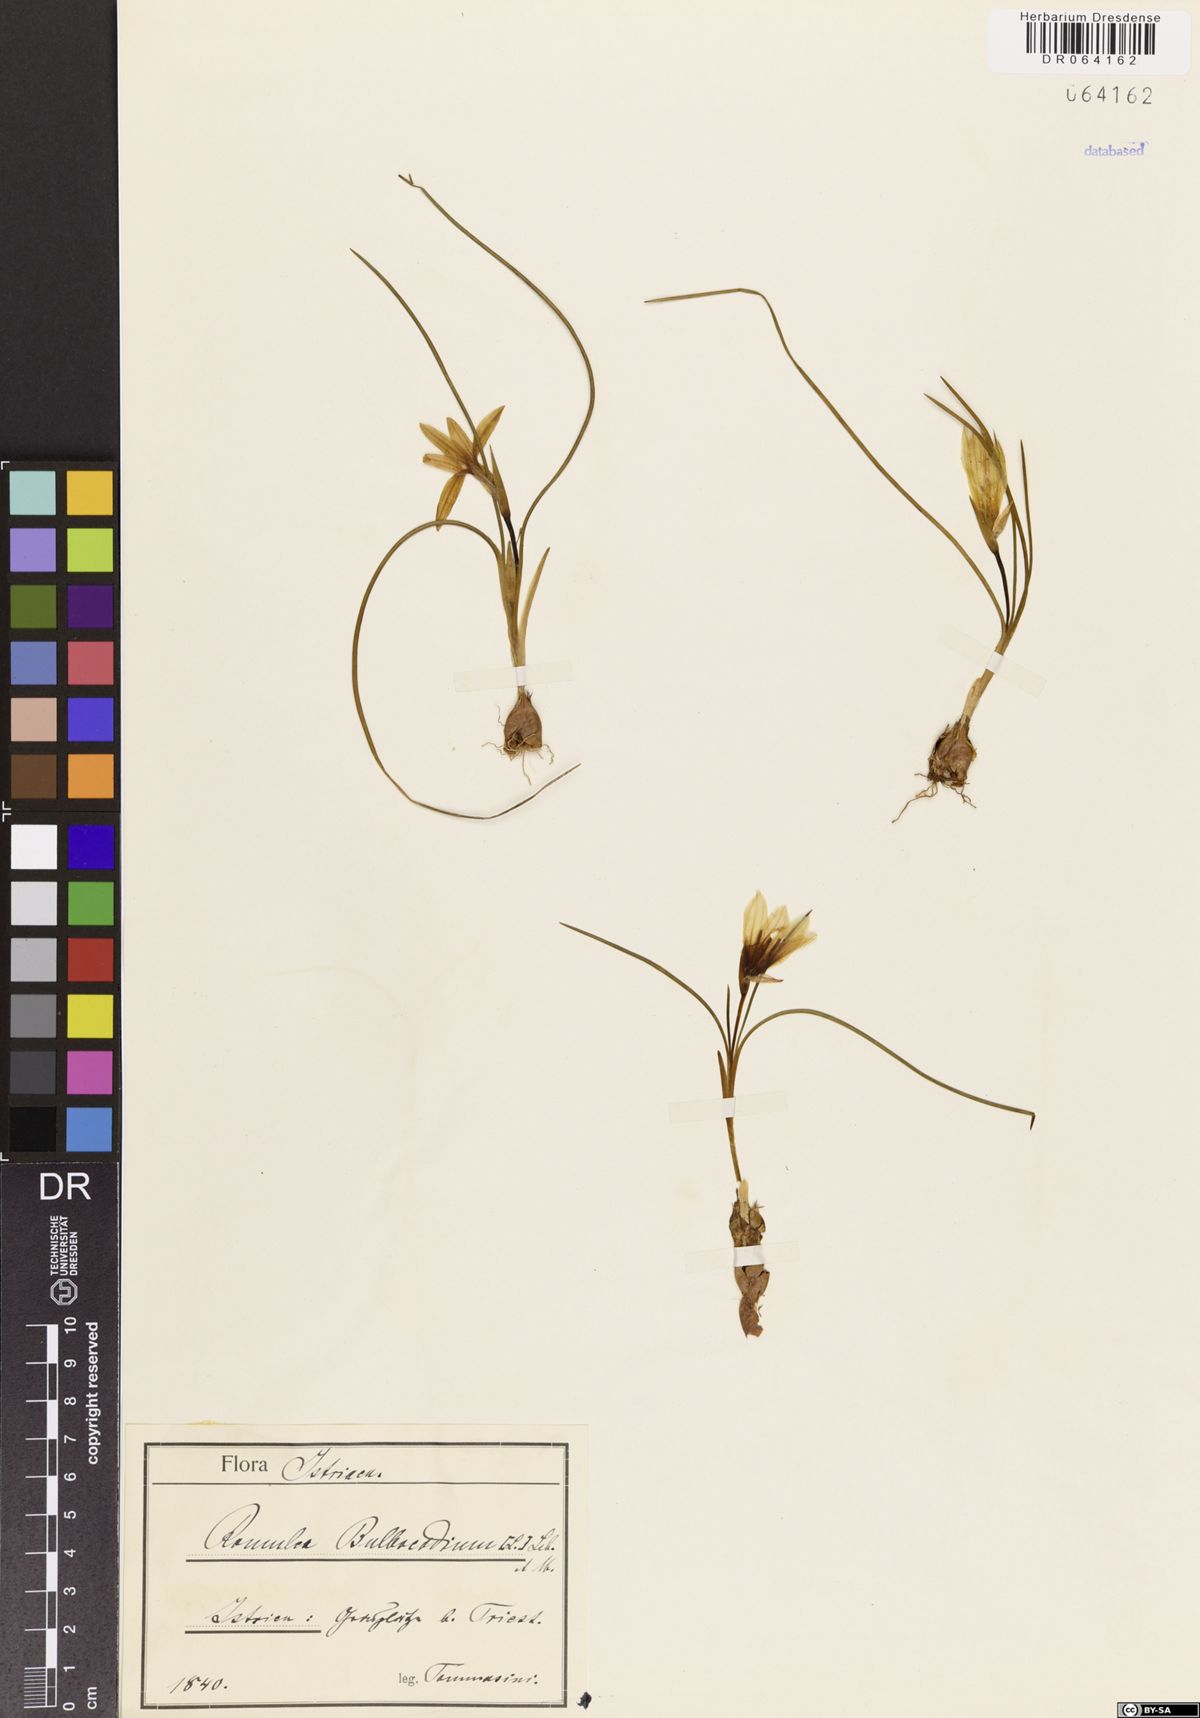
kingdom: Plantae
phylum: Tracheophyta
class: Liliopsida
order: Asparagales
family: Iridaceae
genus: Romulea
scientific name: Romulea bulbocodium
